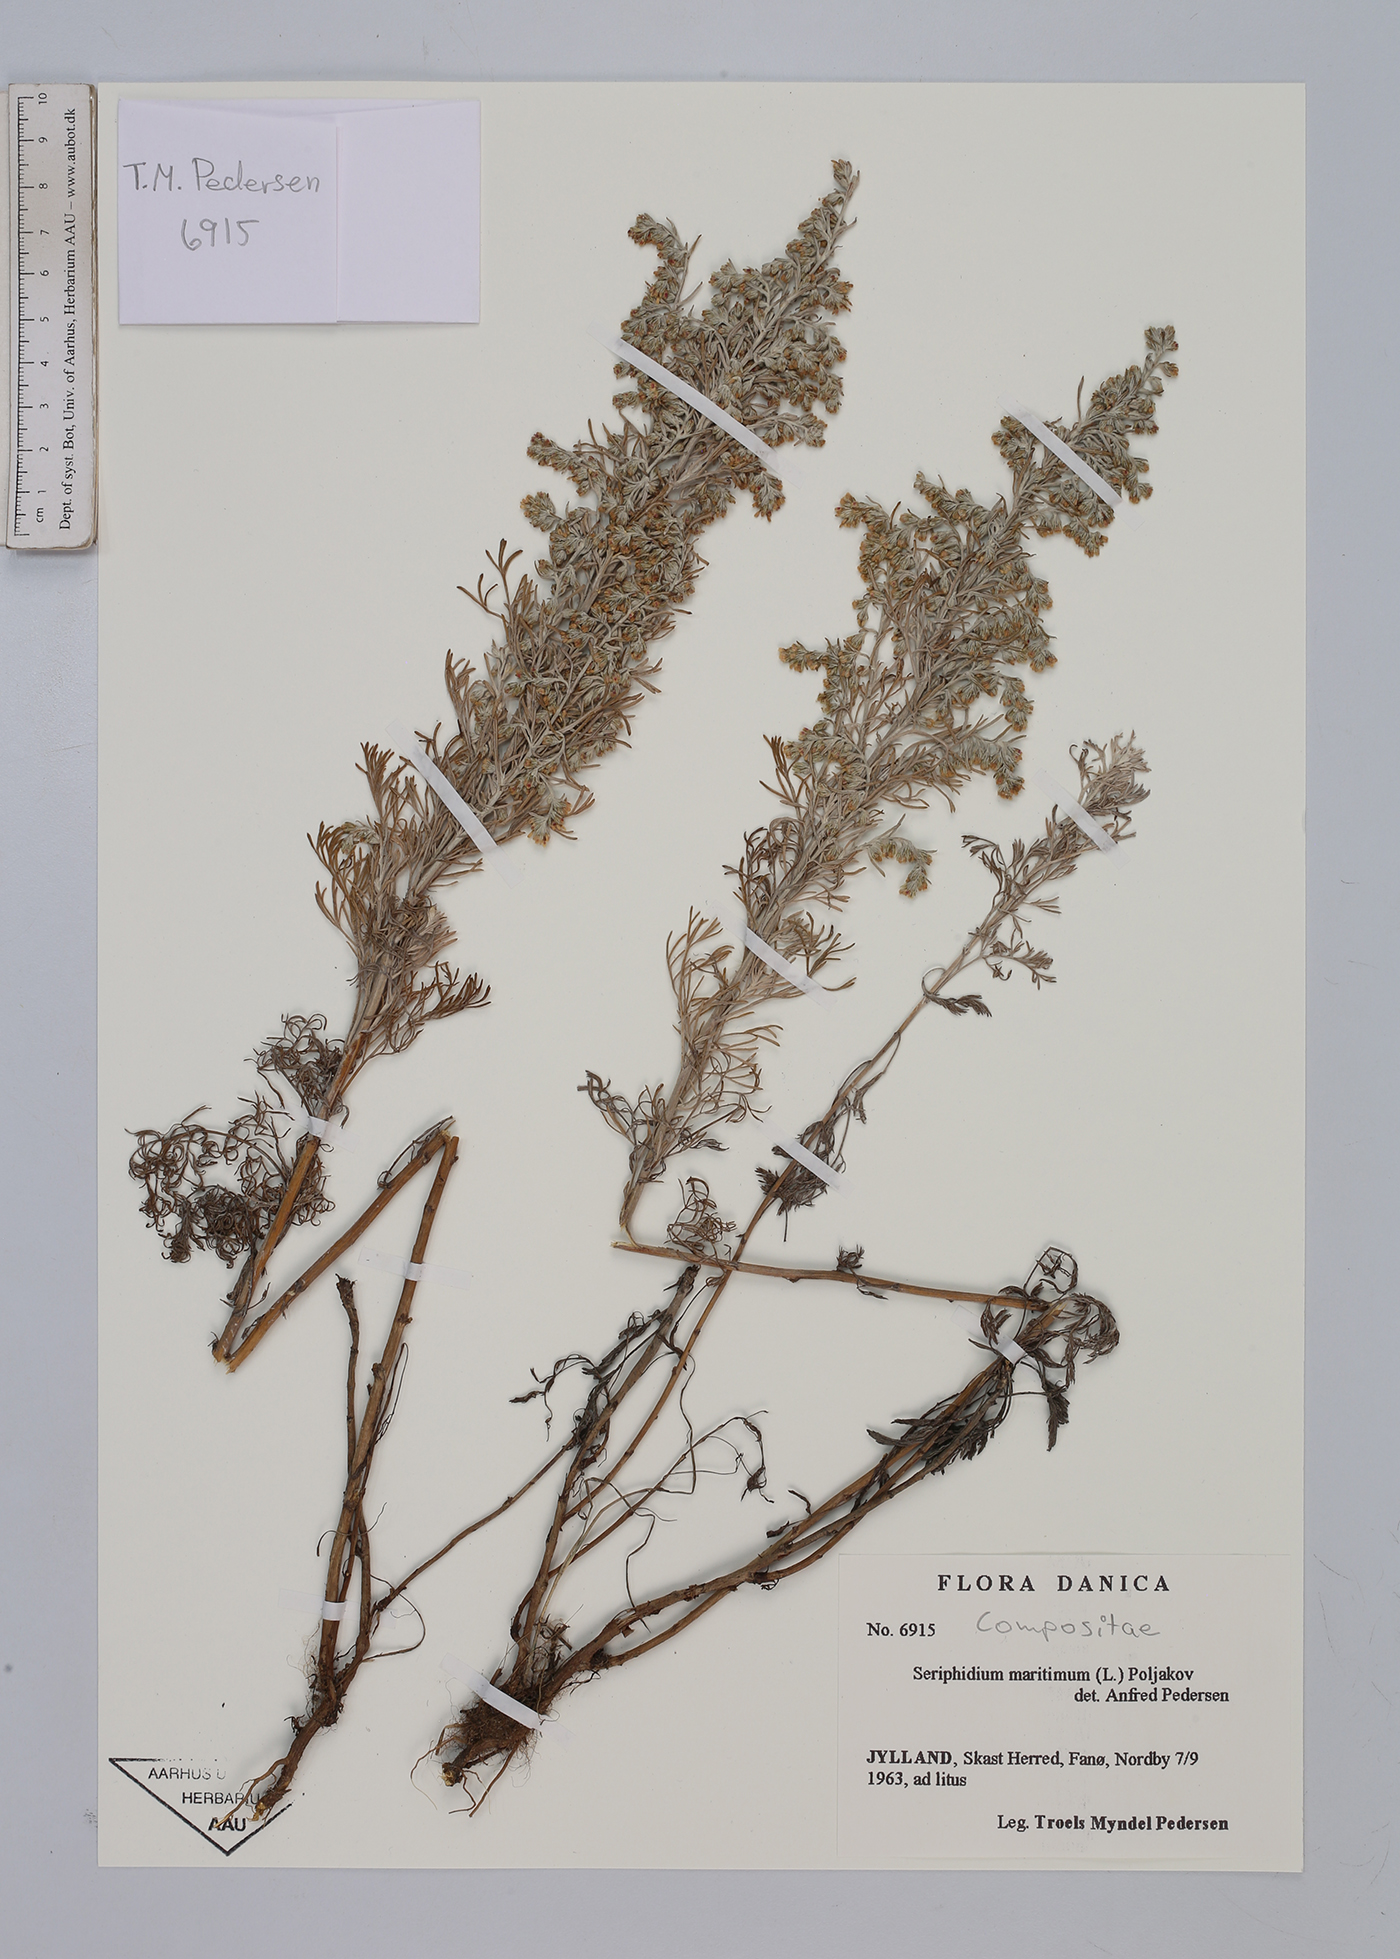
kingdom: Plantae
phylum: Tracheophyta
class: Magnoliopsida
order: Asterales
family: Asteraceae
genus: Artemisia
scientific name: Artemisia maritima
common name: Wormseed
